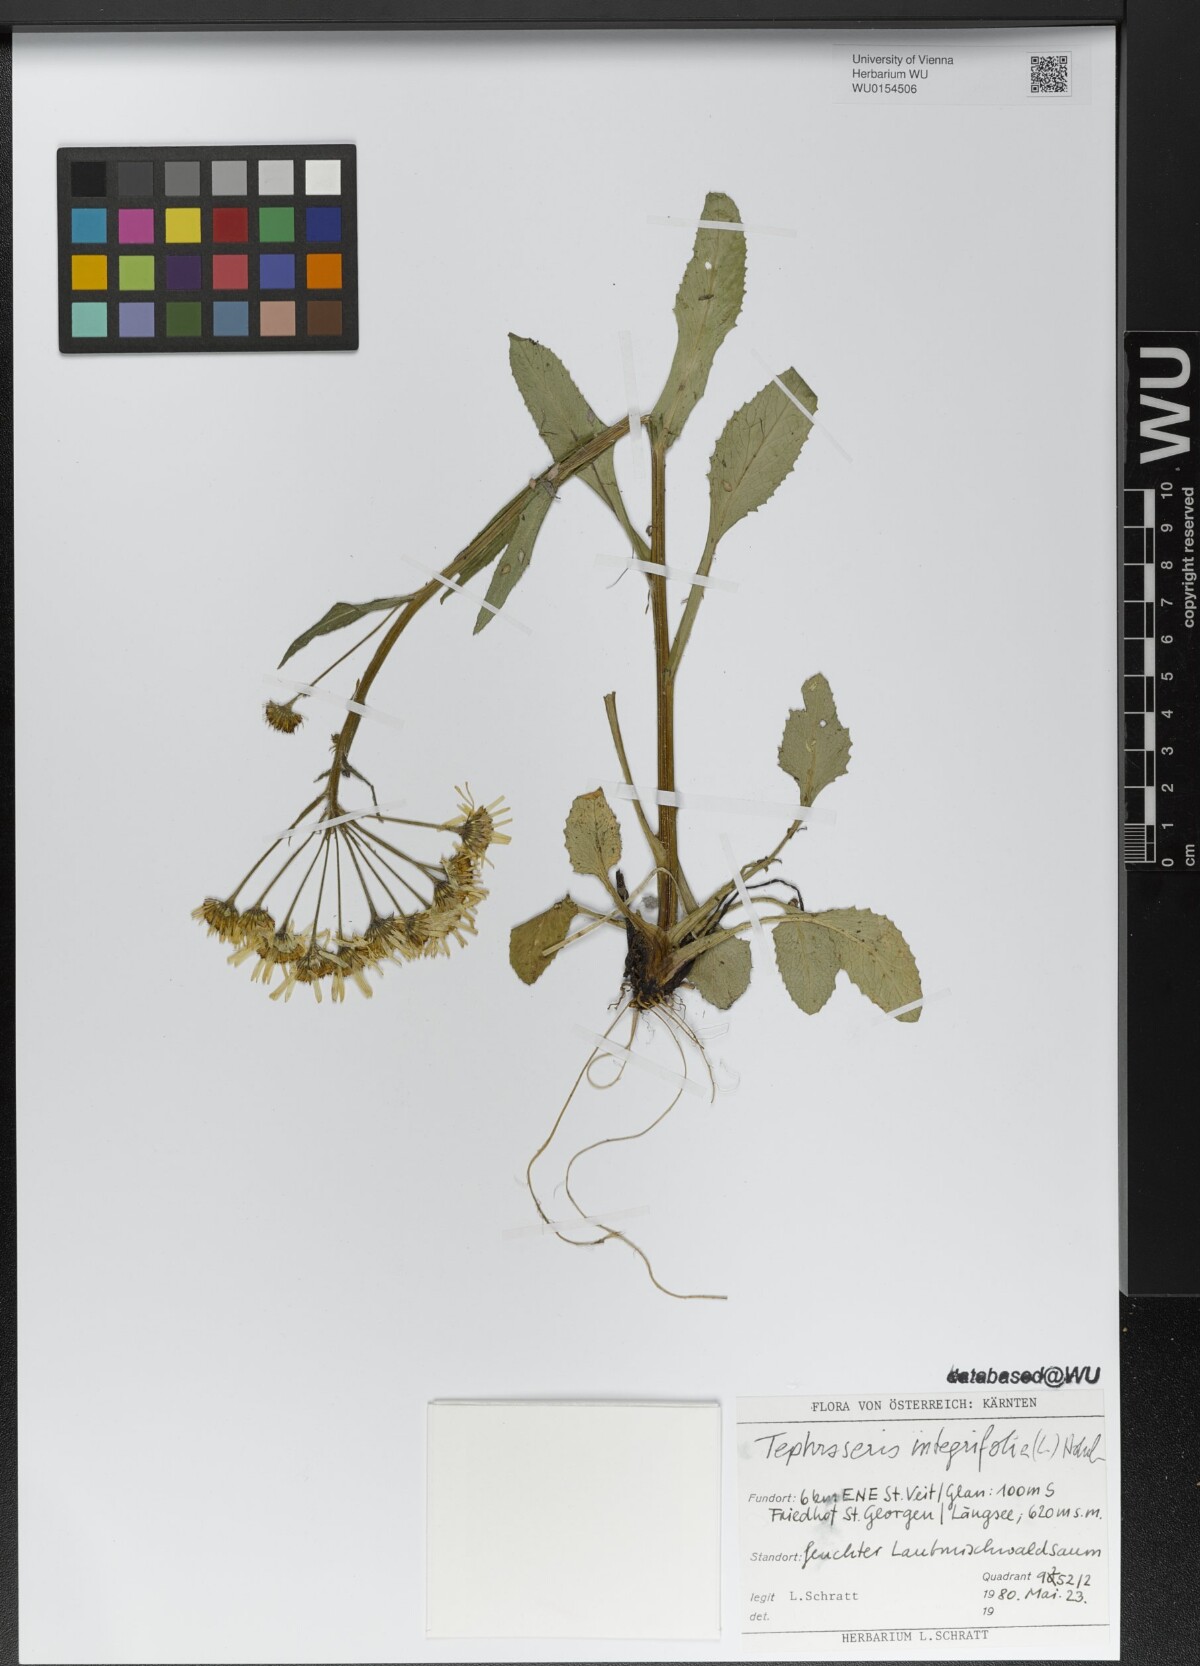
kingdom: Plantae
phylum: Tracheophyta
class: Magnoliopsida
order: Asterales
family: Asteraceae
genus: Tephroseris
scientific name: Tephroseris integrifolia
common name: Field fleawort
